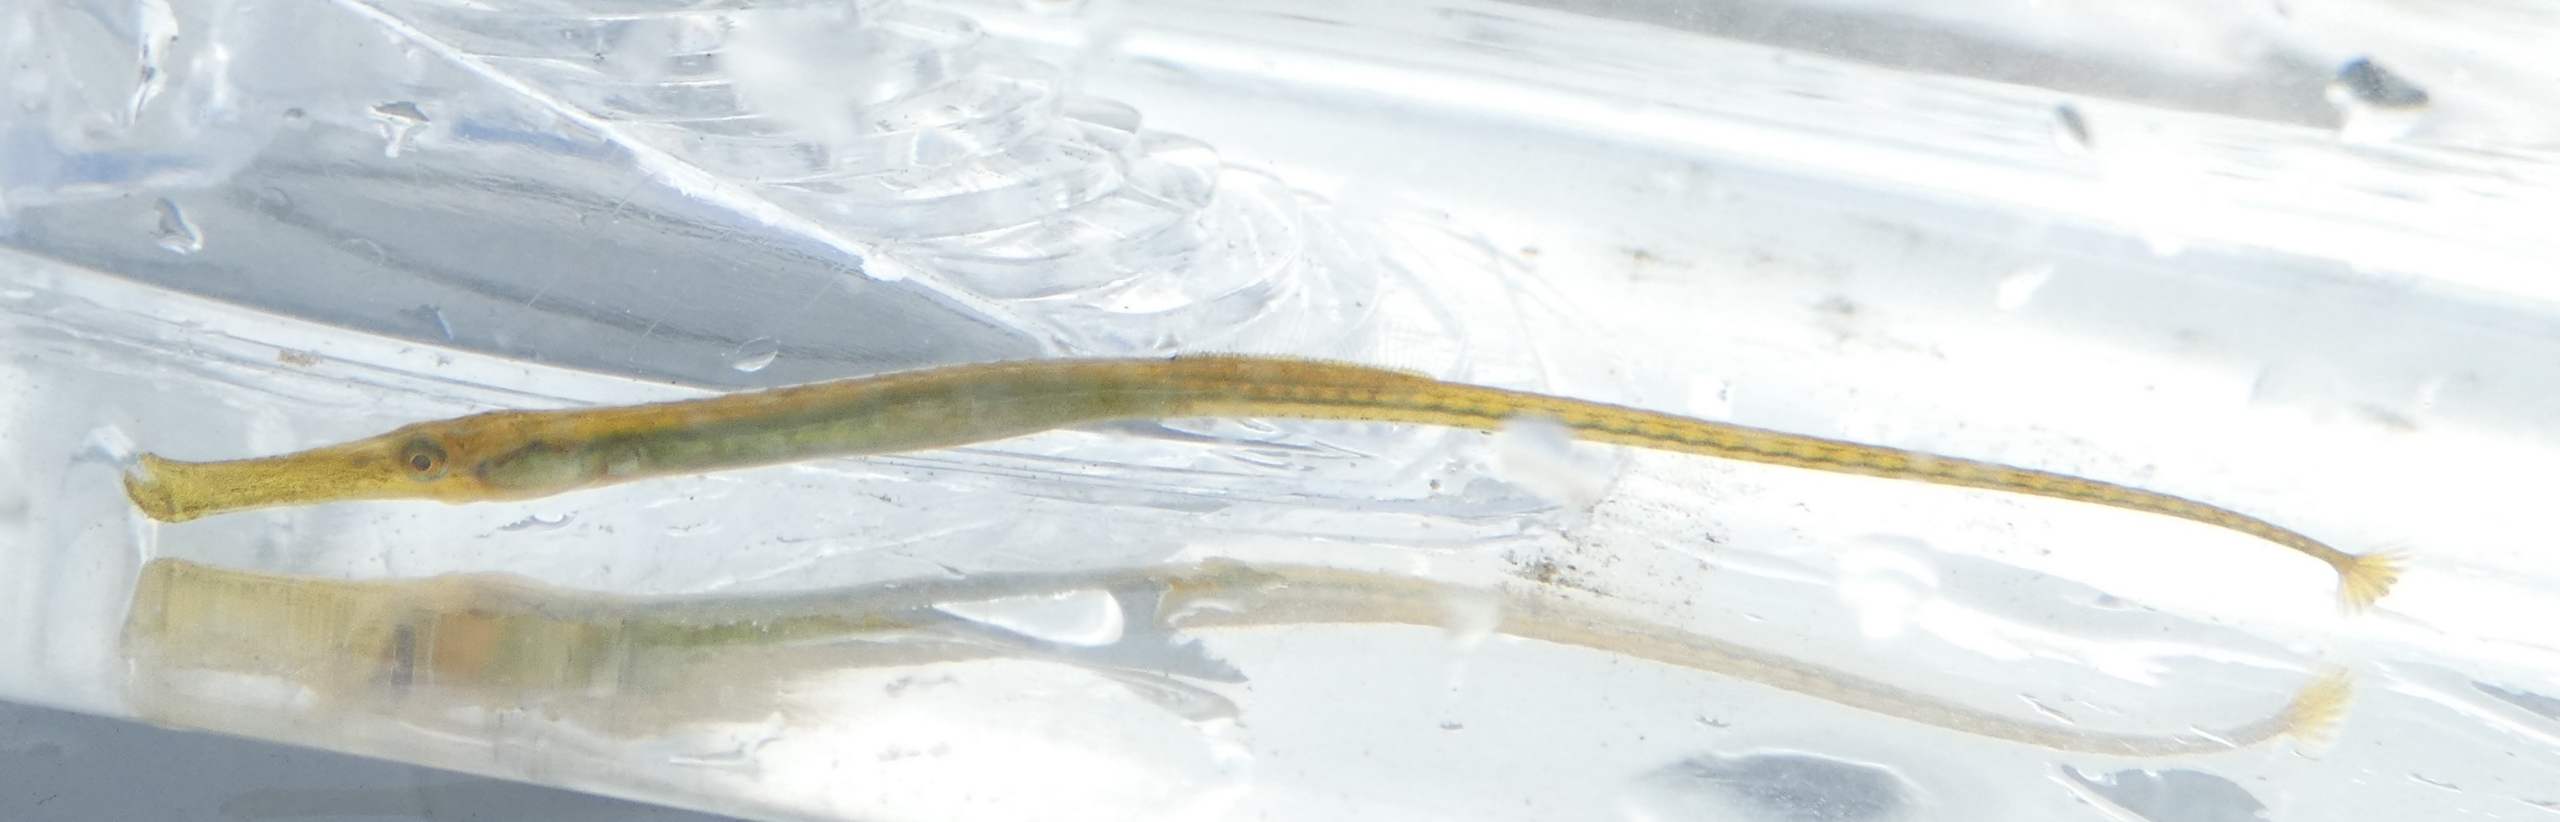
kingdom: Animalia
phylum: Chordata
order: Syngnathiformes
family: Syngnathidae
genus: Syngnathus
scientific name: Syngnathus typhle
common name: Almindelig tangnål
